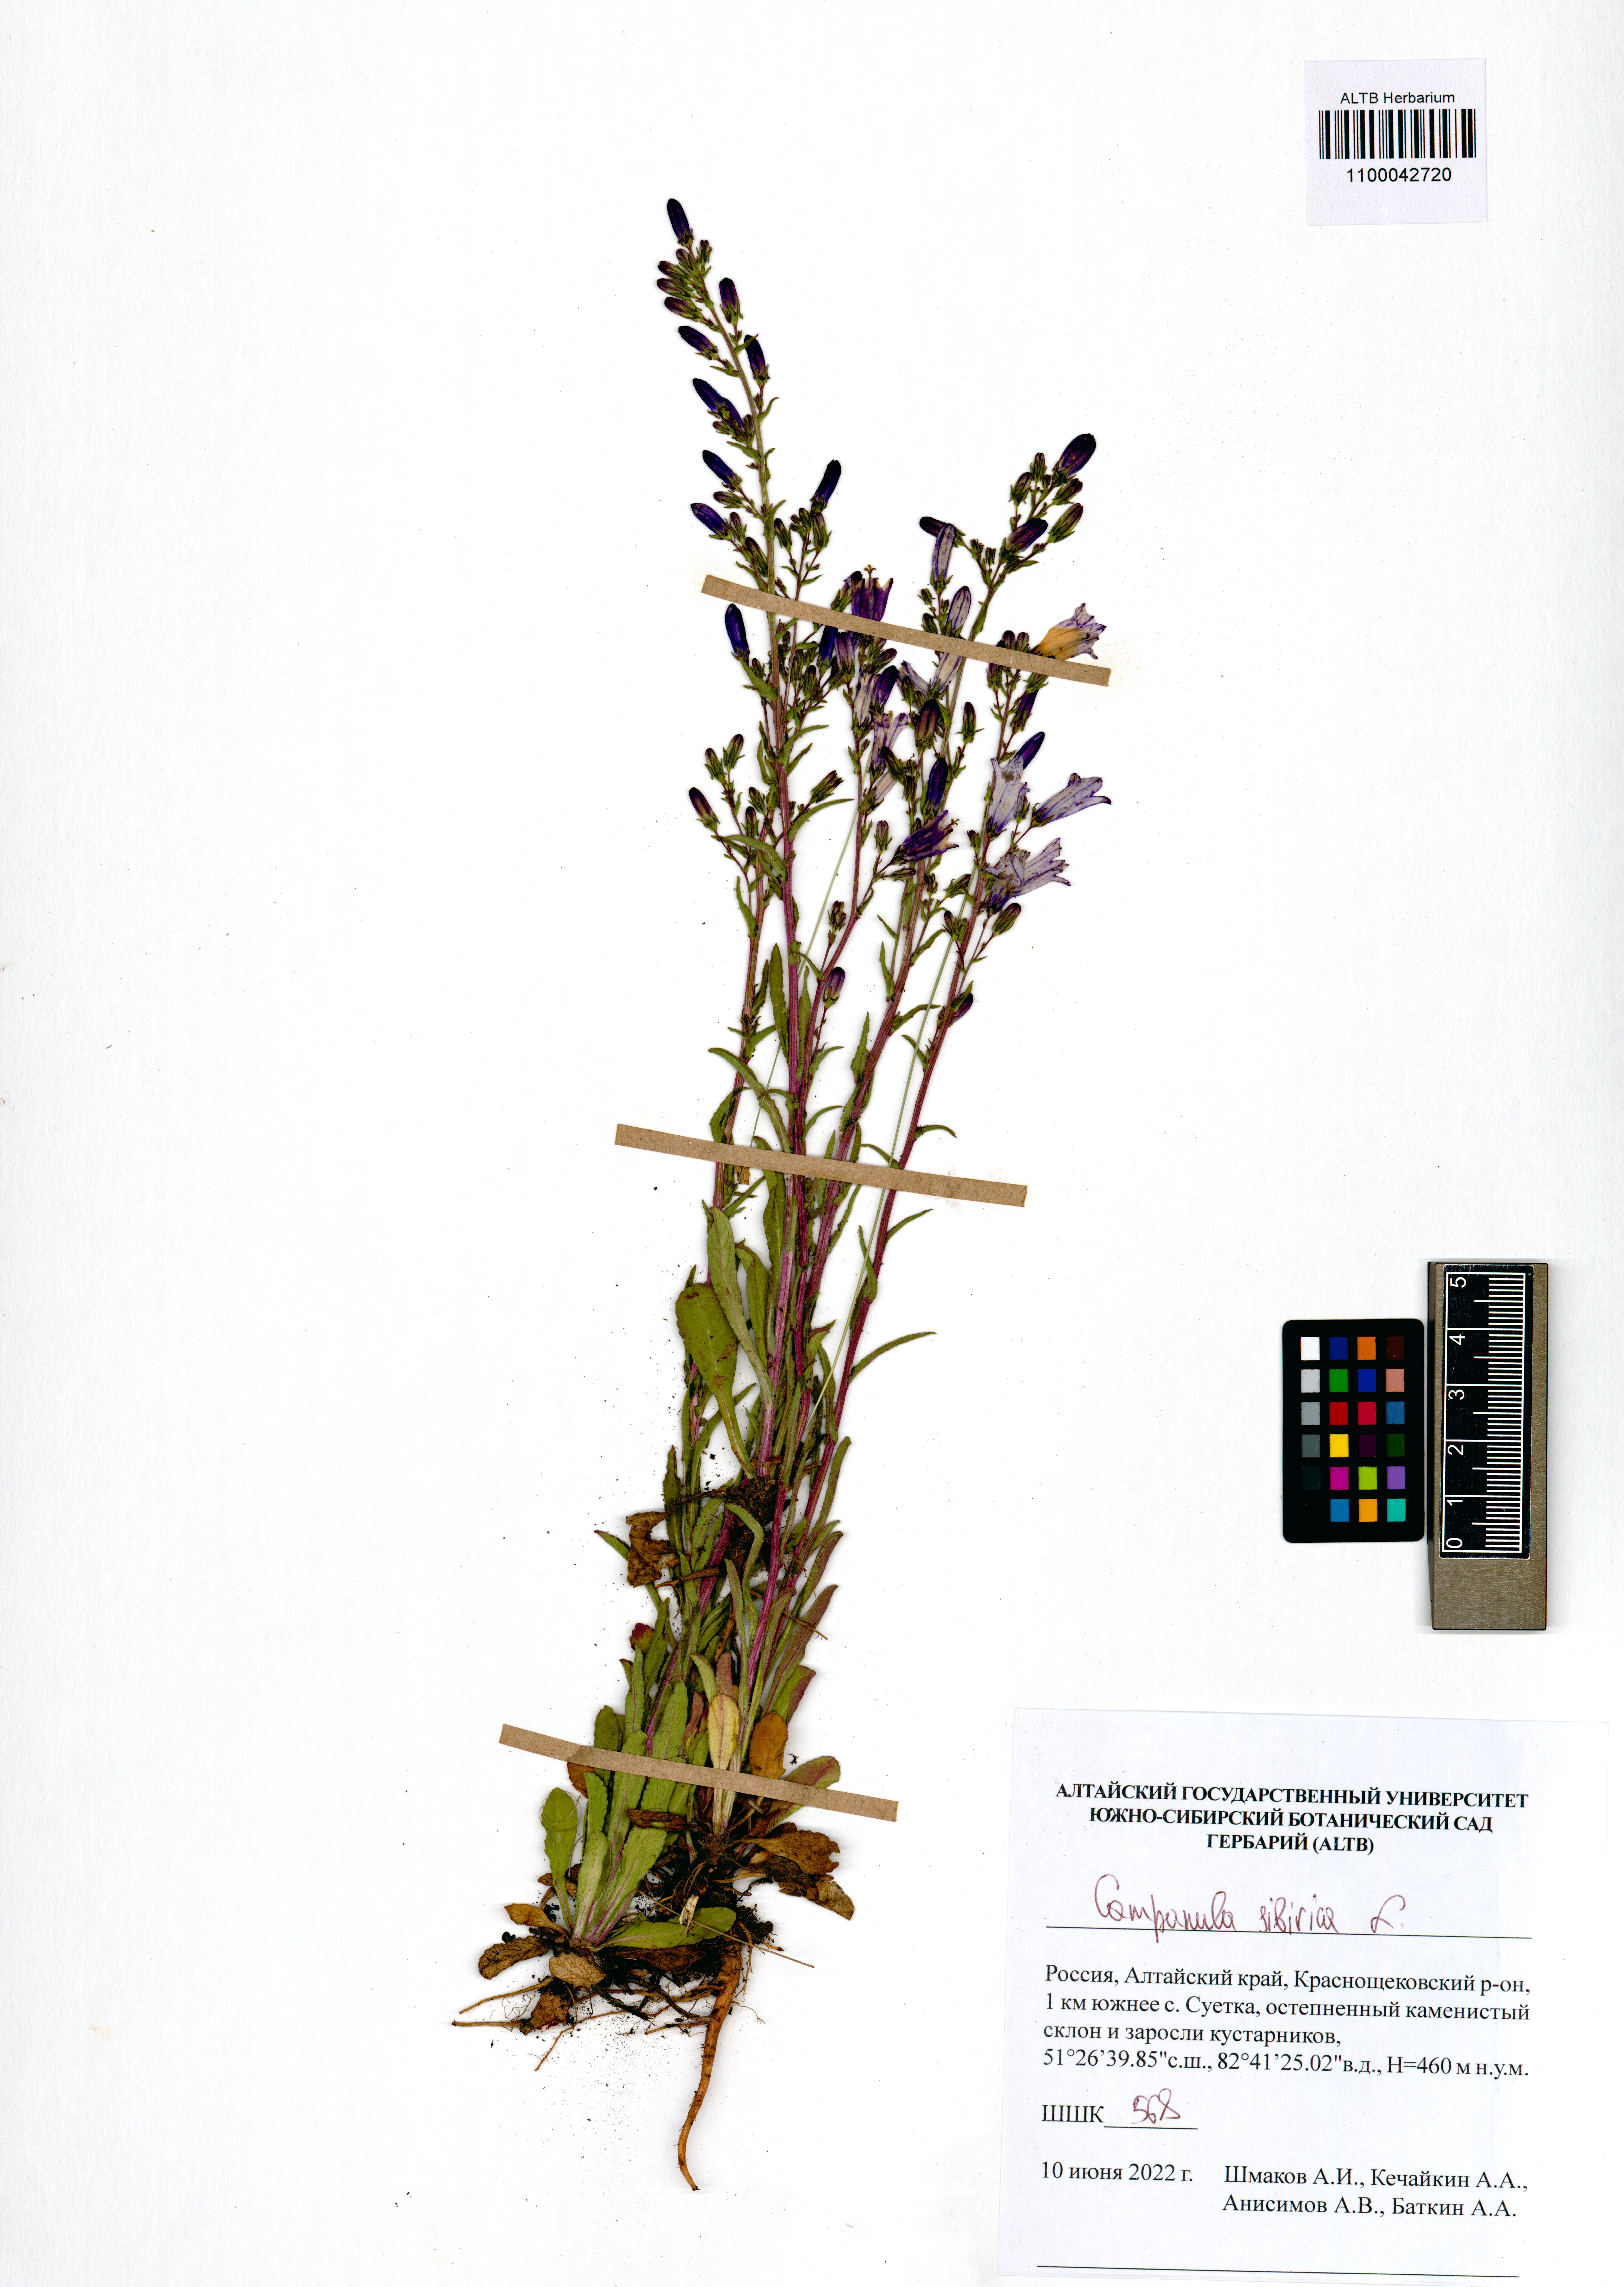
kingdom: Plantae
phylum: Tracheophyta
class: Magnoliopsida
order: Asterales
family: Campanulaceae
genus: Campanula
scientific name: Campanula sibirica
